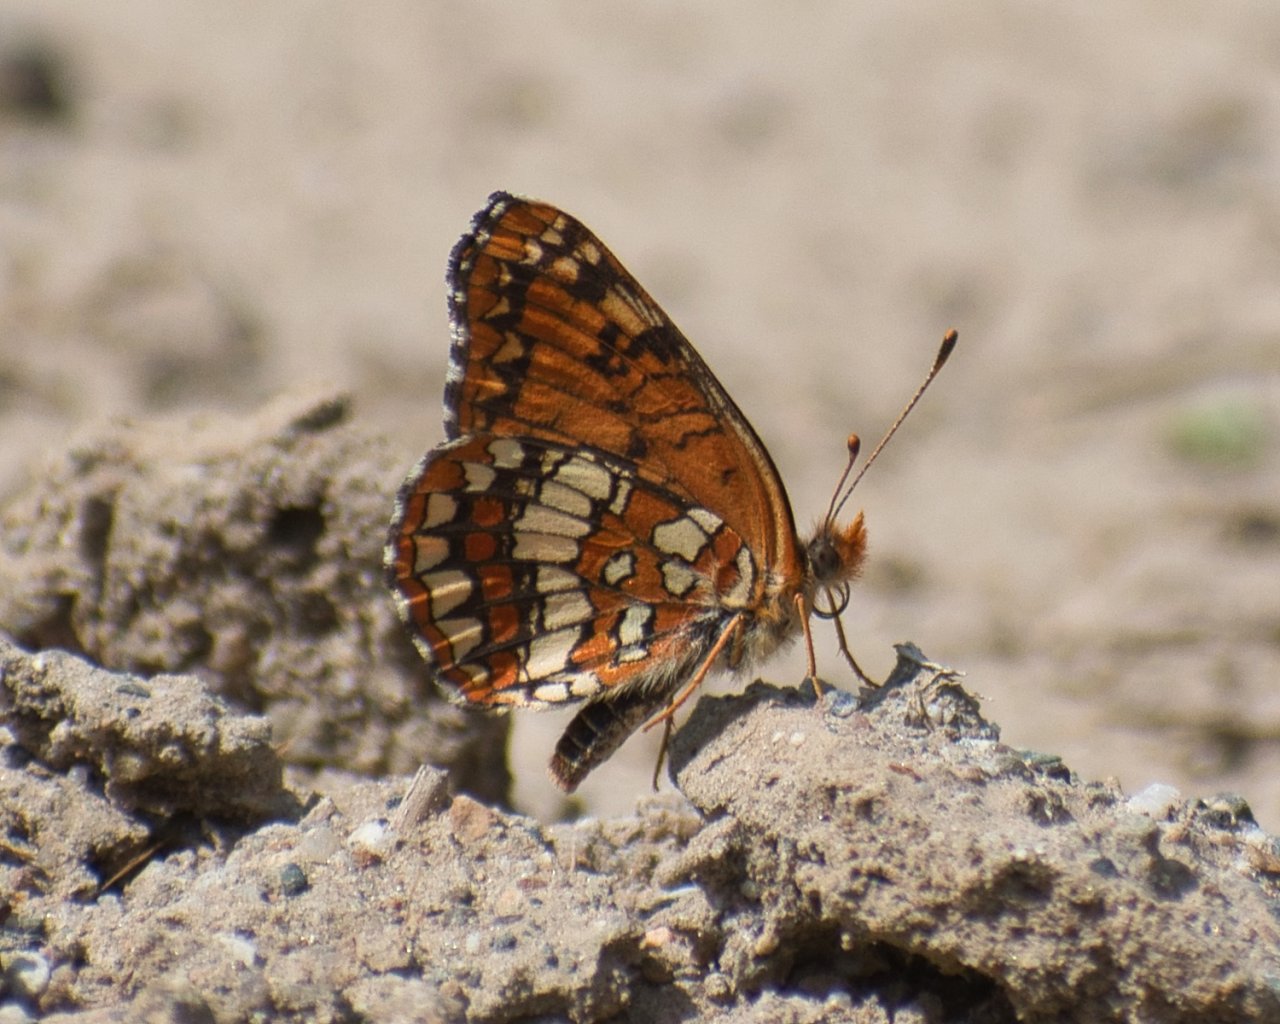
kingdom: Animalia
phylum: Arthropoda
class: Insecta
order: Lepidoptera
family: Nymphalidae
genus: Chlosyne
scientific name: Chlosyne palla
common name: Northern Checkerspot
